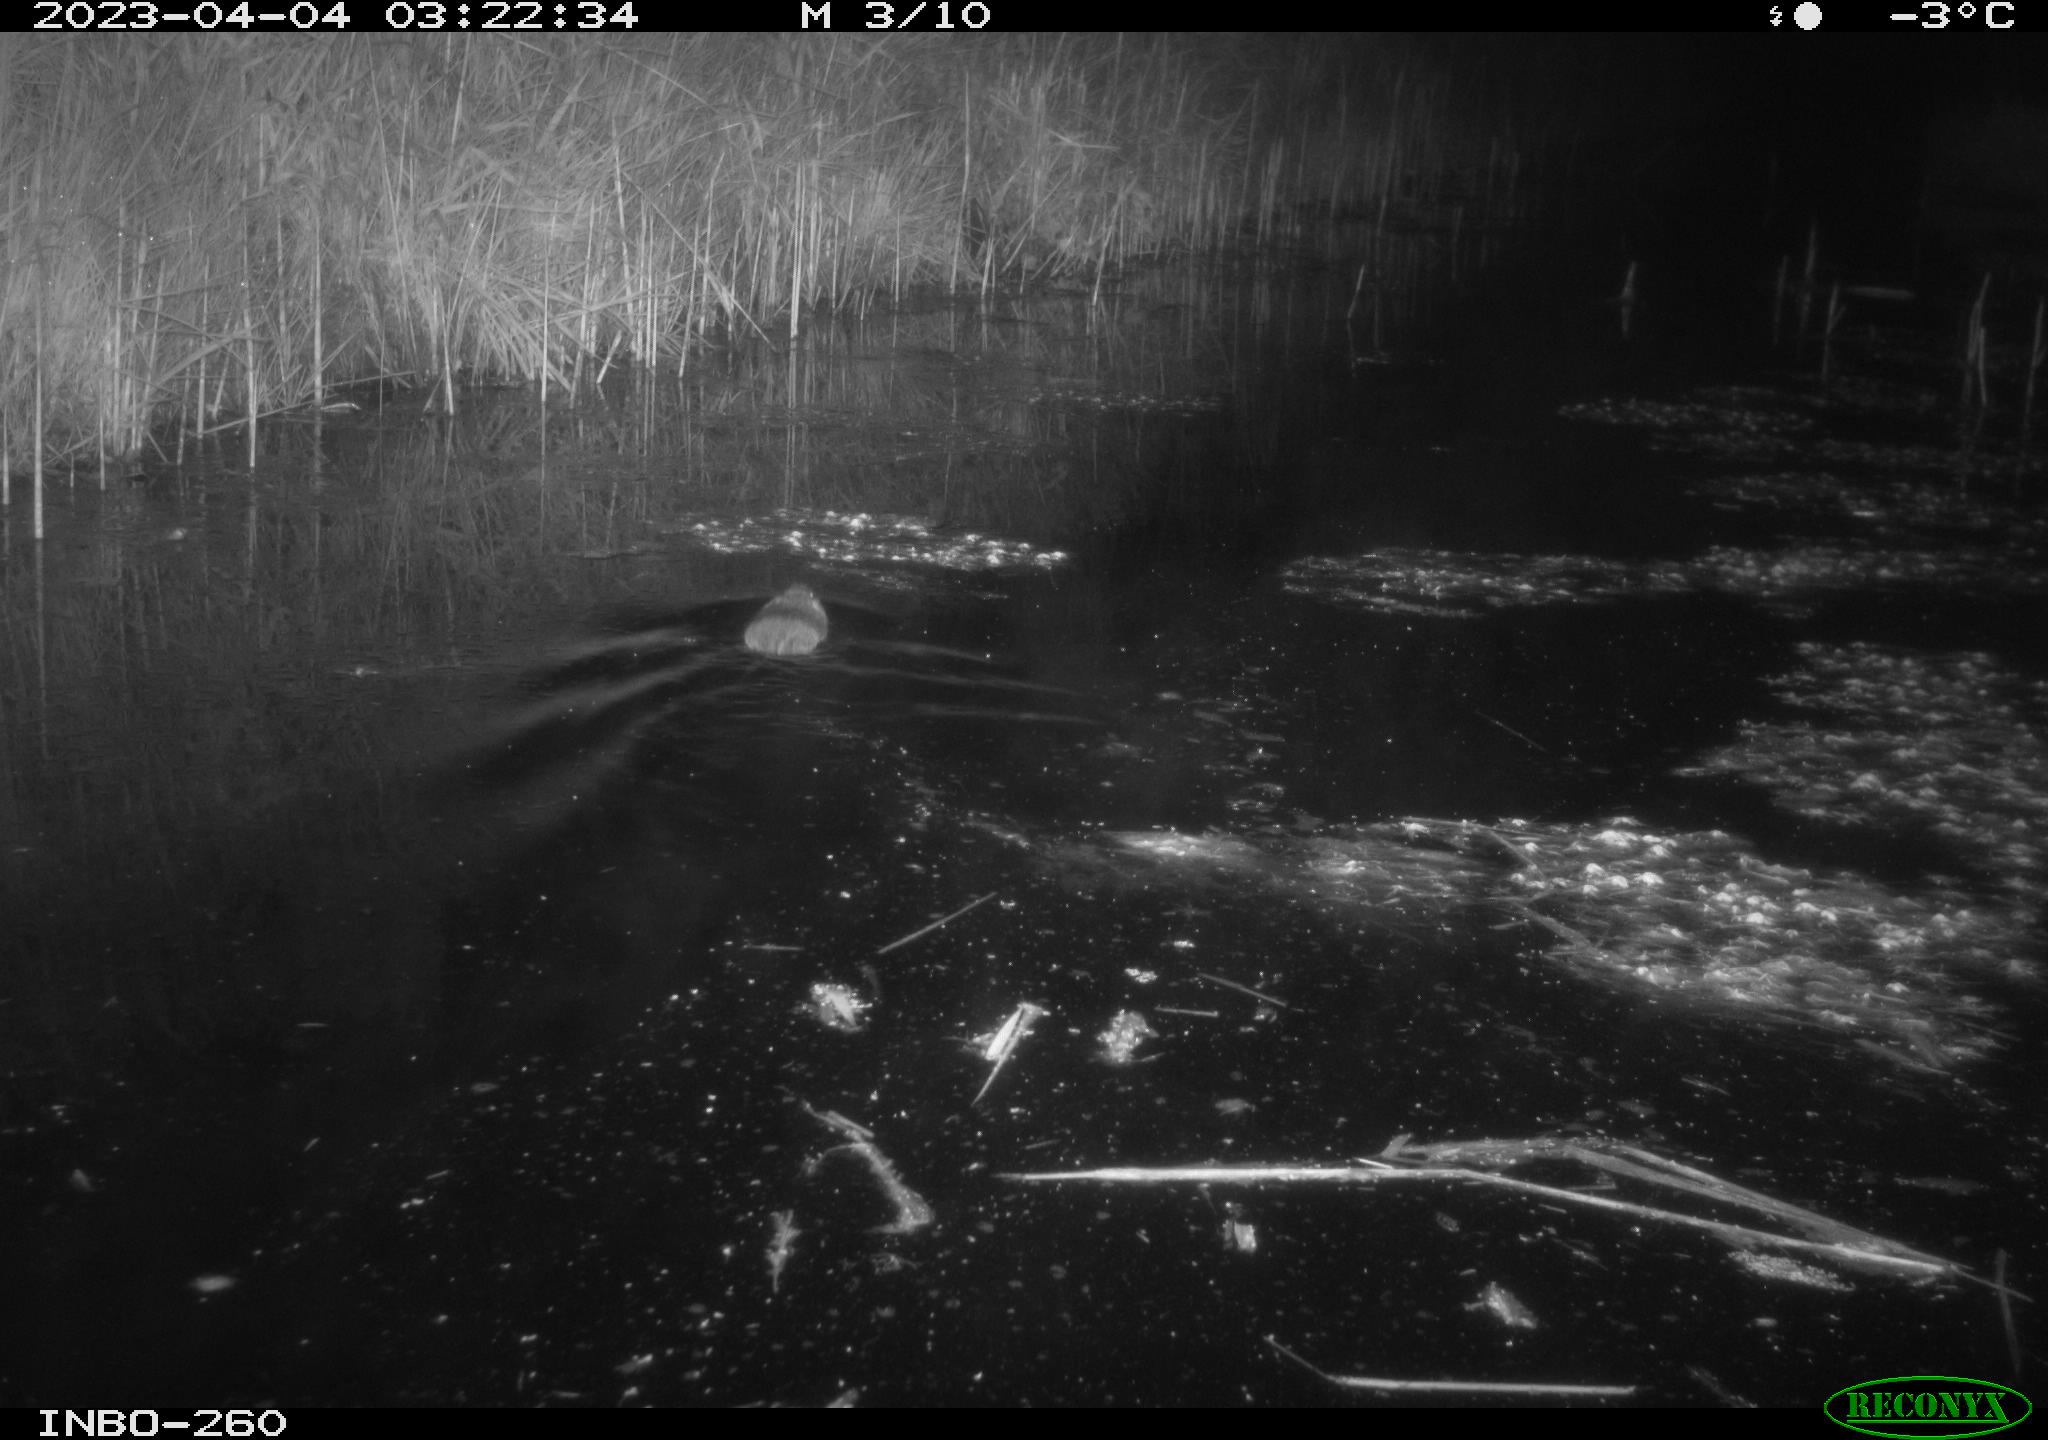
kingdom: Animalia
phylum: Chordata
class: Mammalia
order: Rodentia
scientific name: Rodentia
